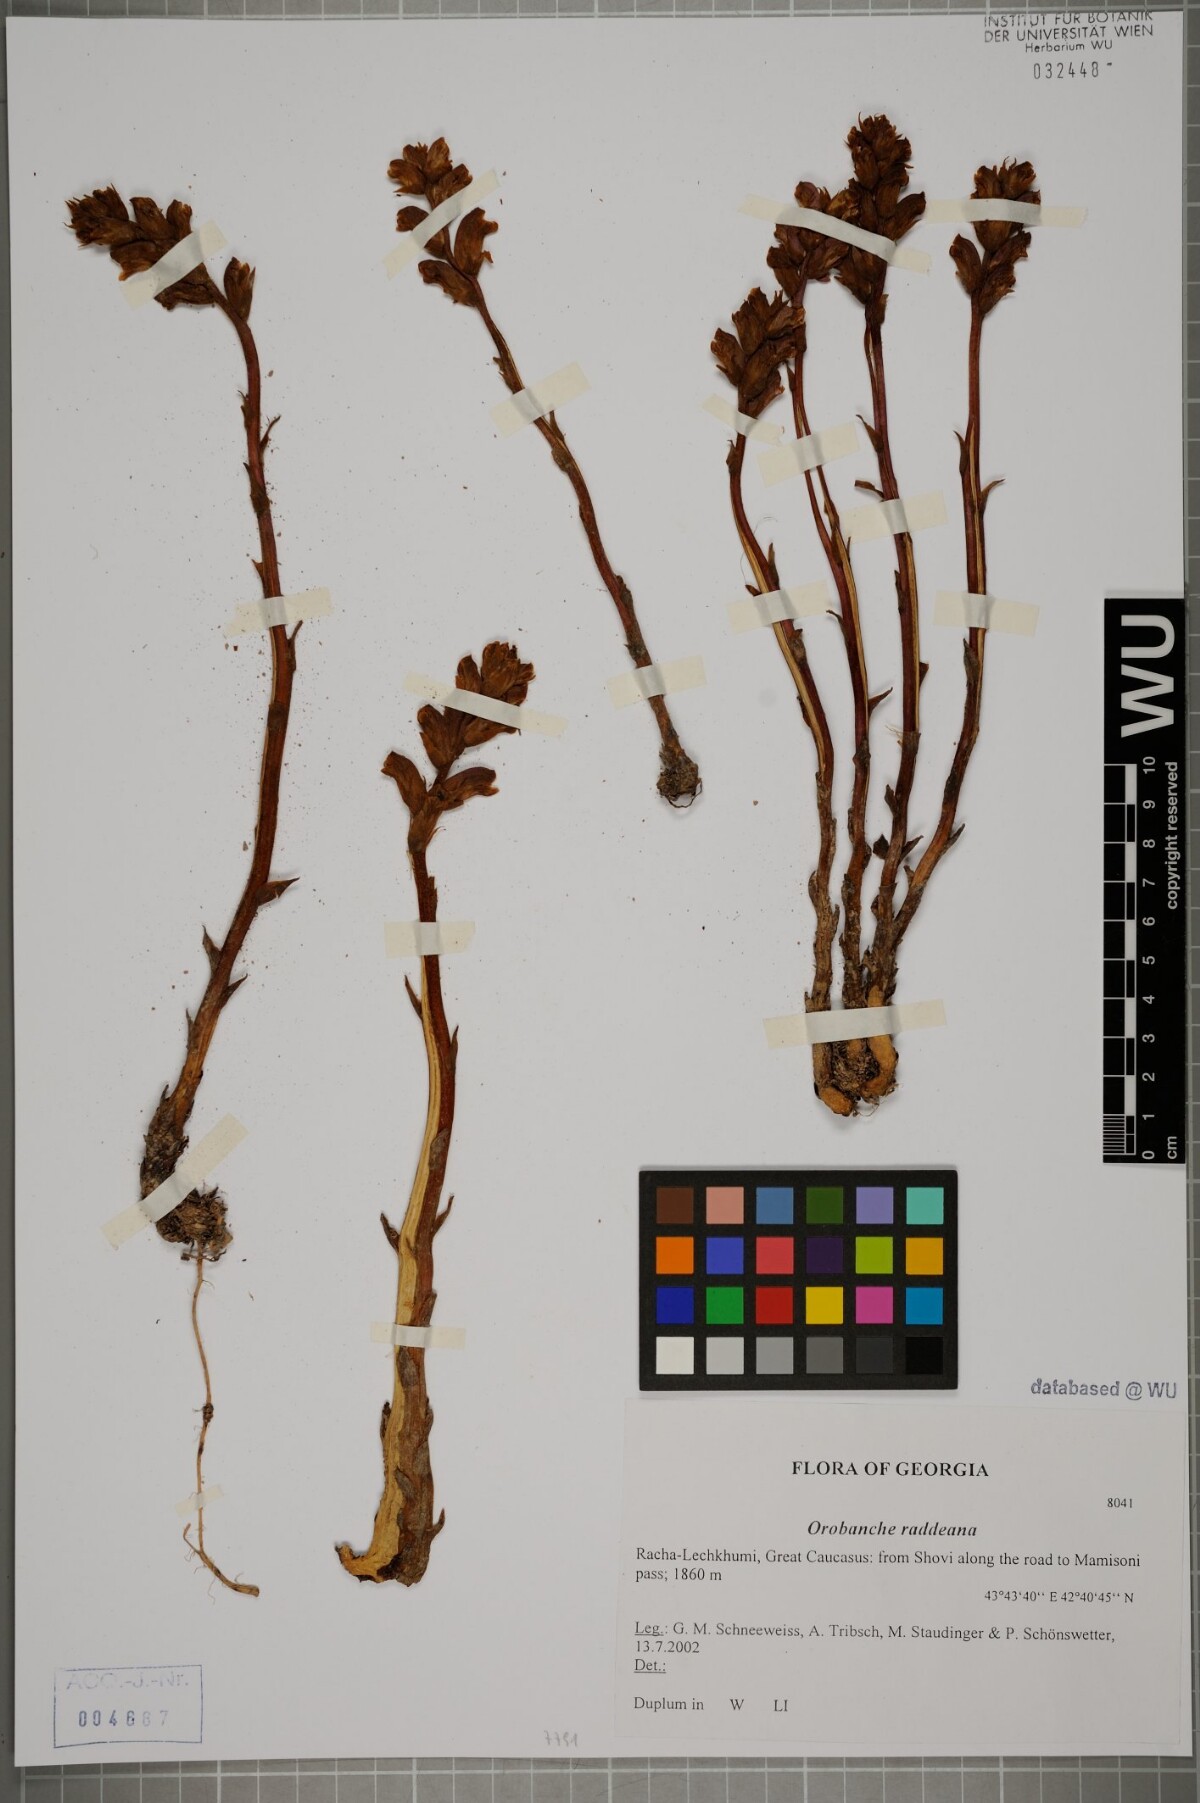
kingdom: Plantae
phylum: Tracheophyta
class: Magnoliopsida
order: Lamiales
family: Orobanchaceae
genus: Orobanche
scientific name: Orobanche alba
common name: Thyme broomrape
